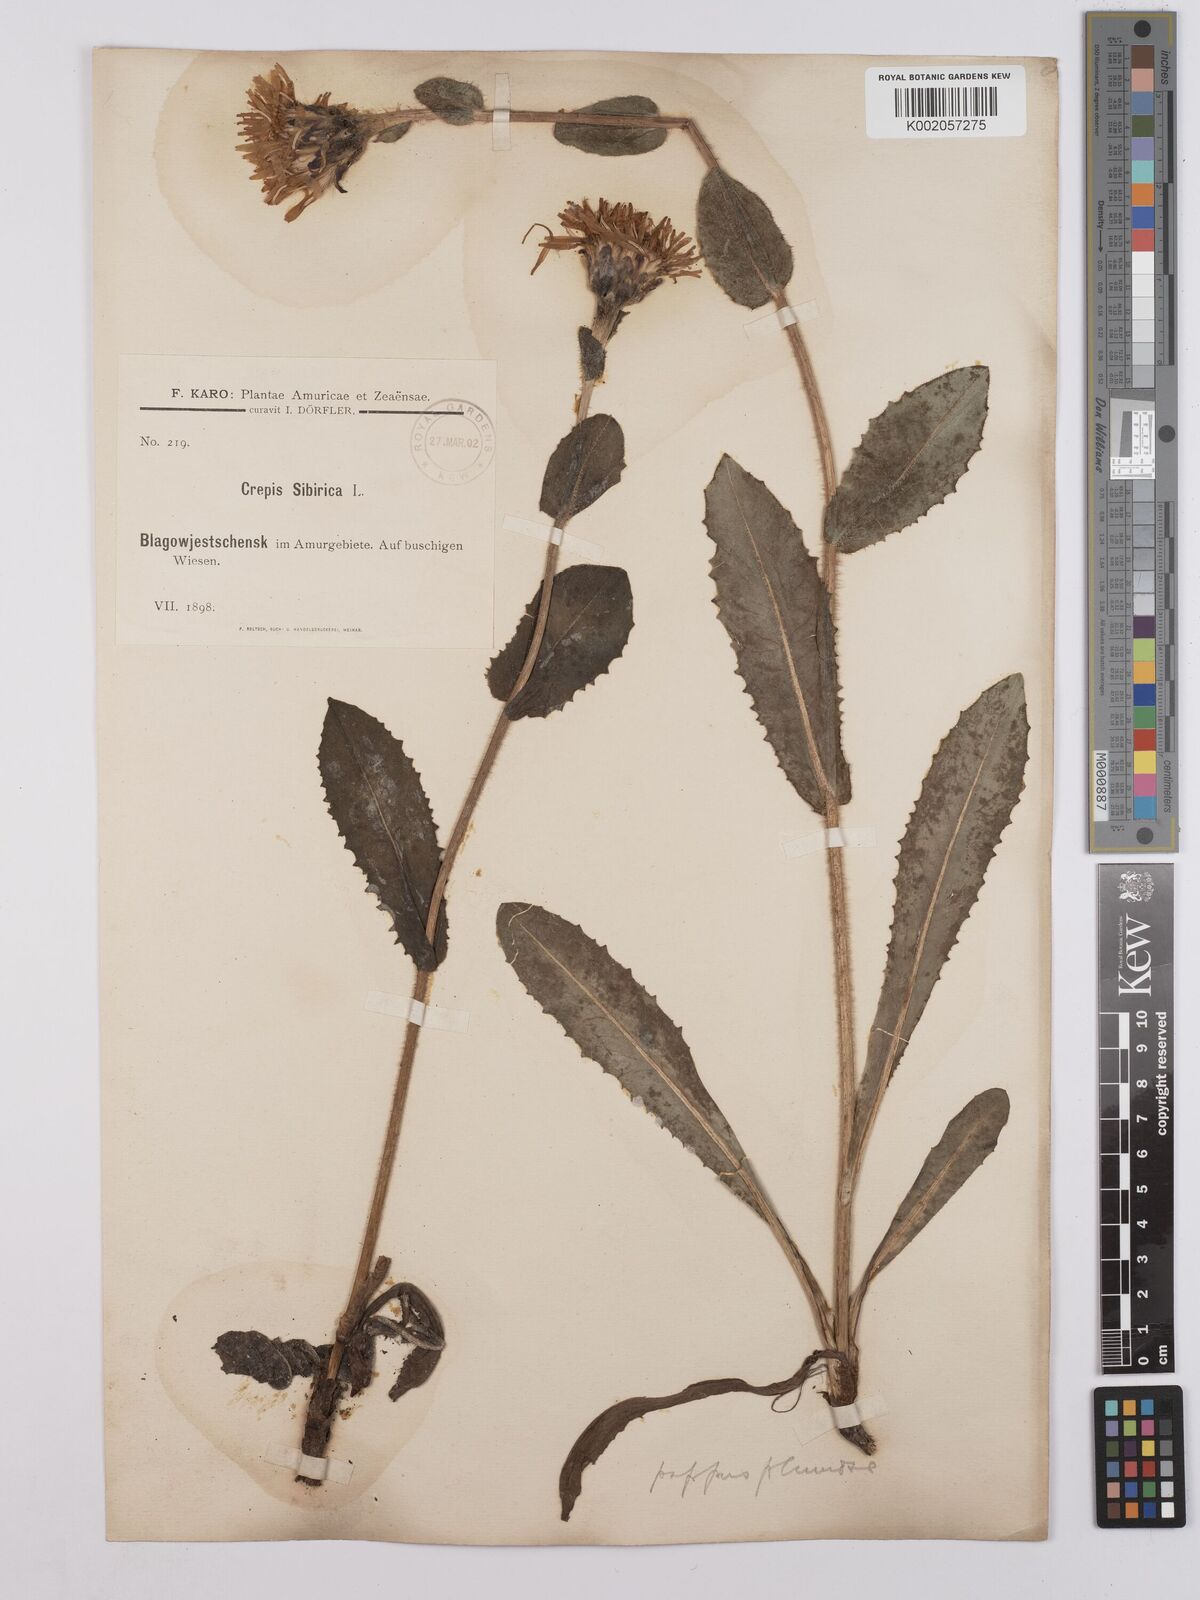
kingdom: Plantae
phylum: Tracheophyta
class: Magnoliopsida
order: Asterales
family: Asteraceae
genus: Crepis
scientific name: Crepis sibirica
